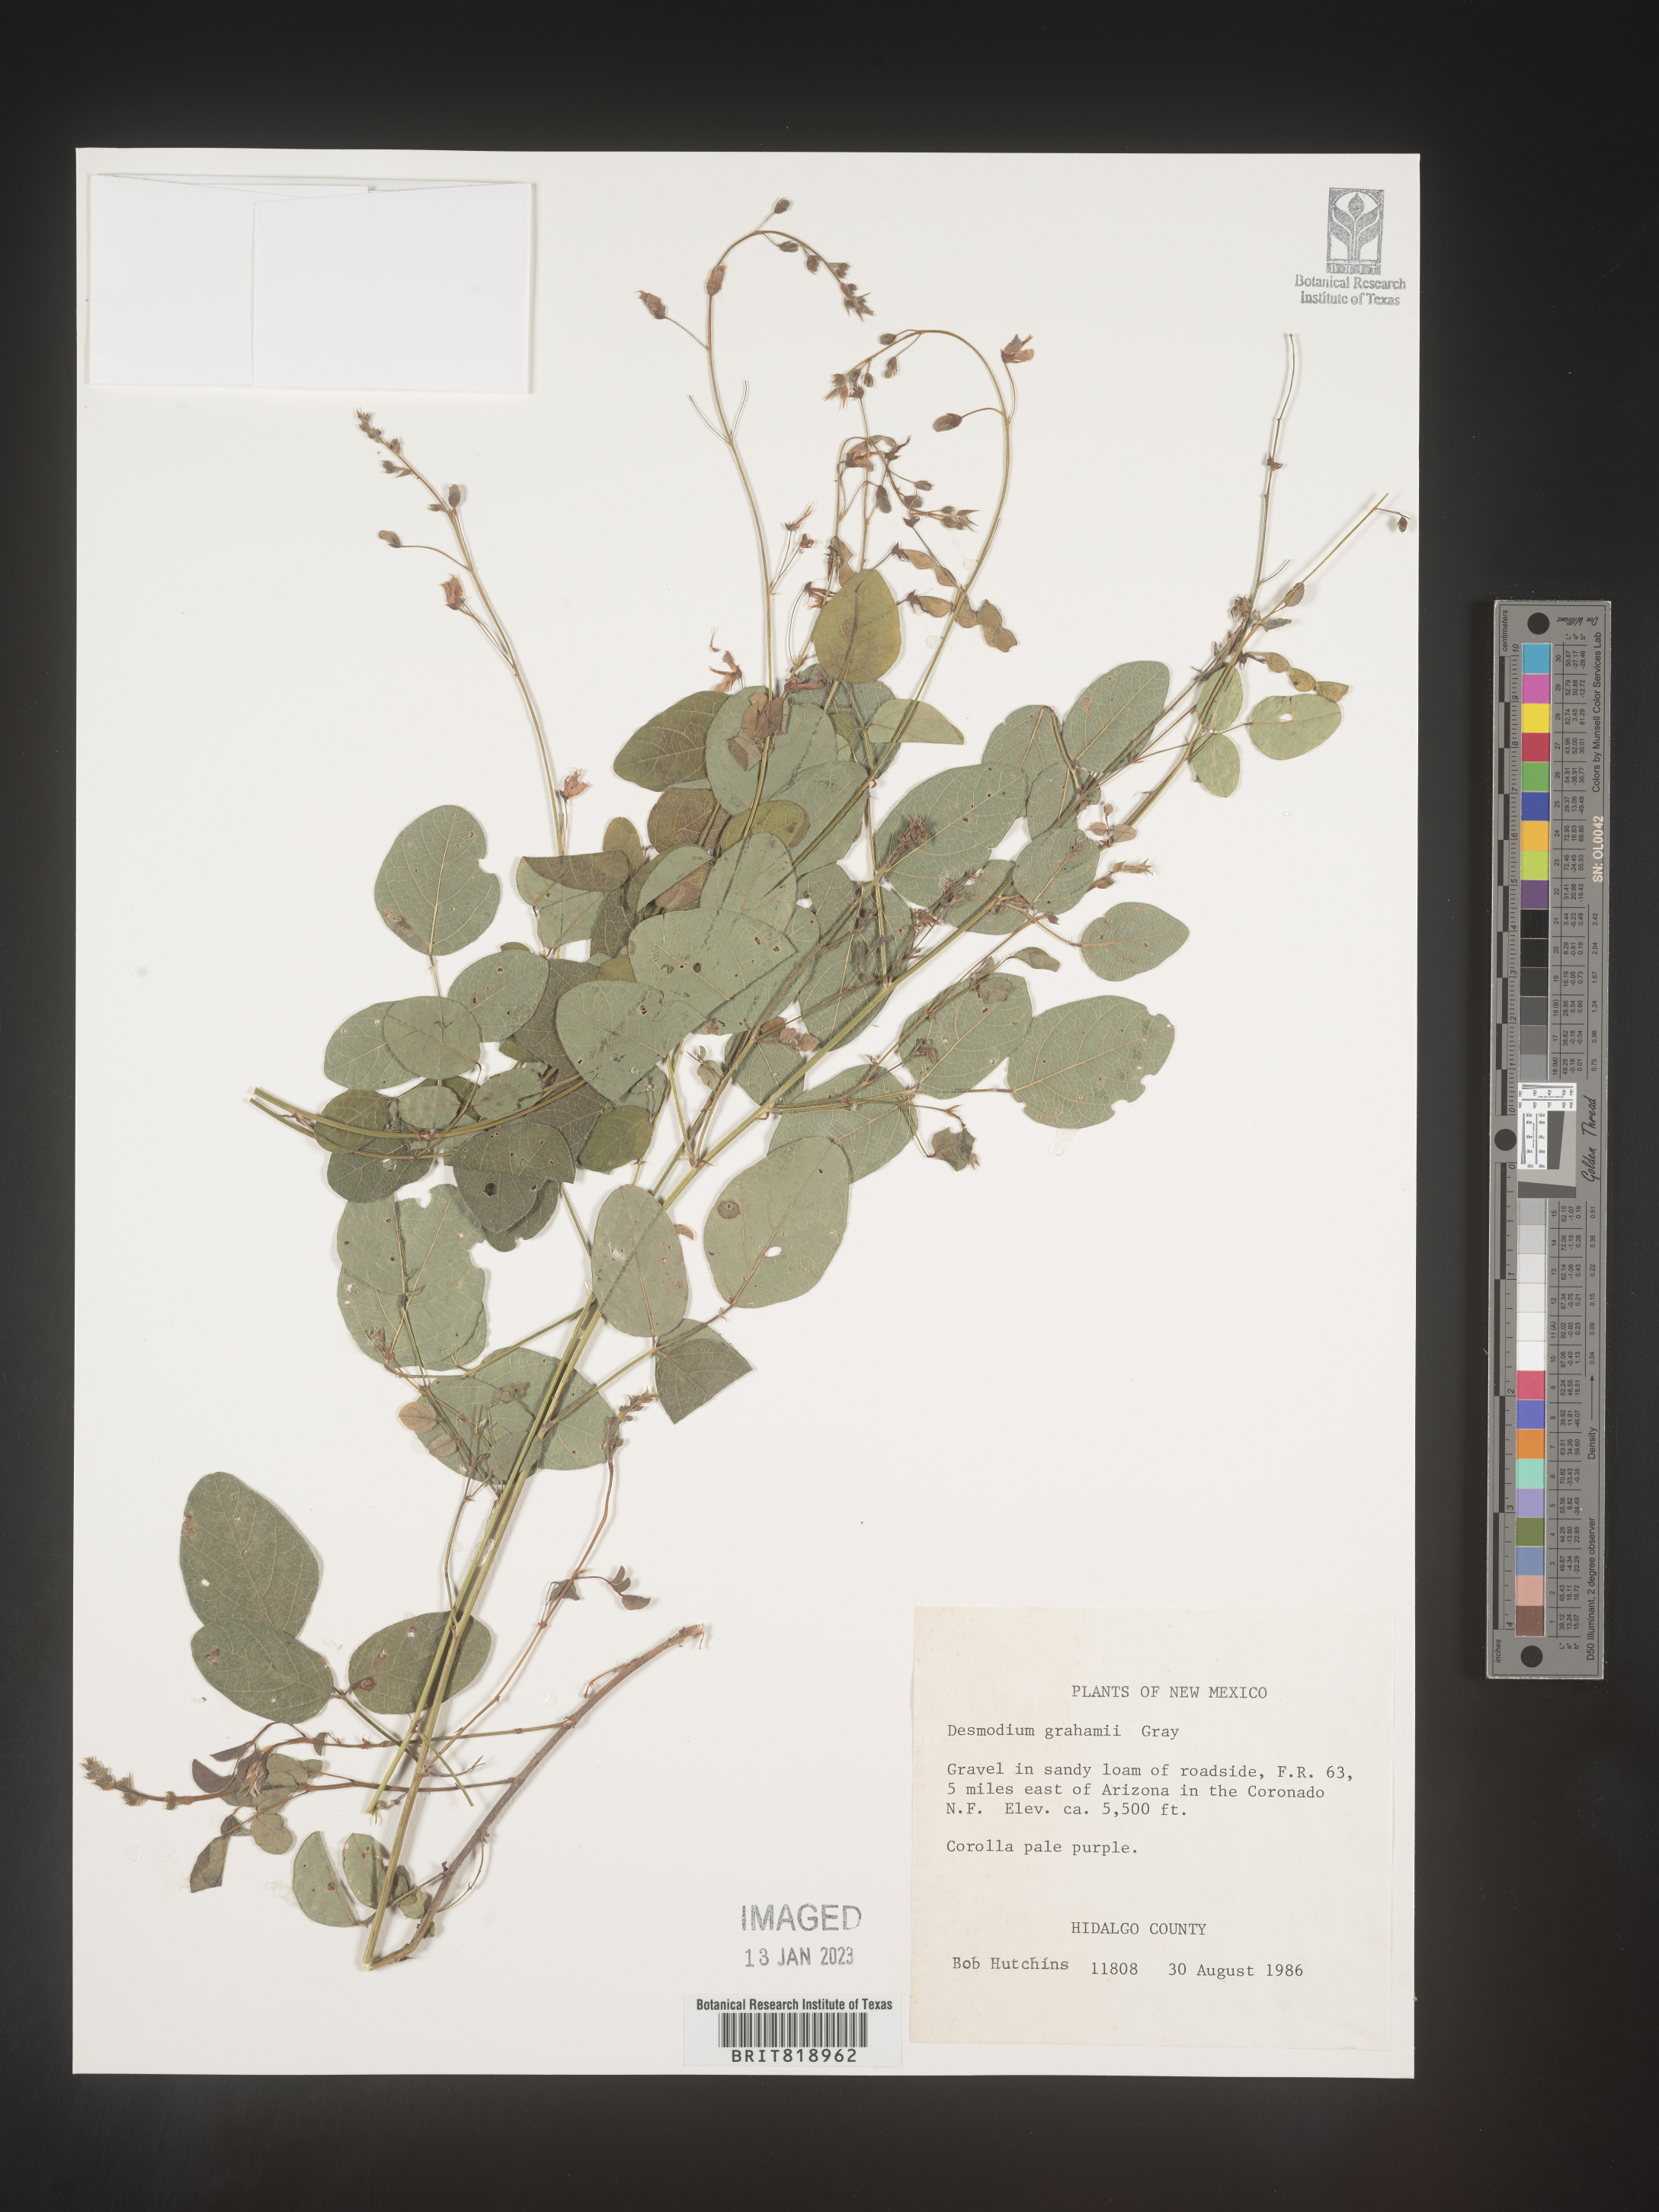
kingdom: Plantae
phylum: Tracheophyta
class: Magnoliopsida
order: Fabales
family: Fabaceae
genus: Desmodium
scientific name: Desmodium
